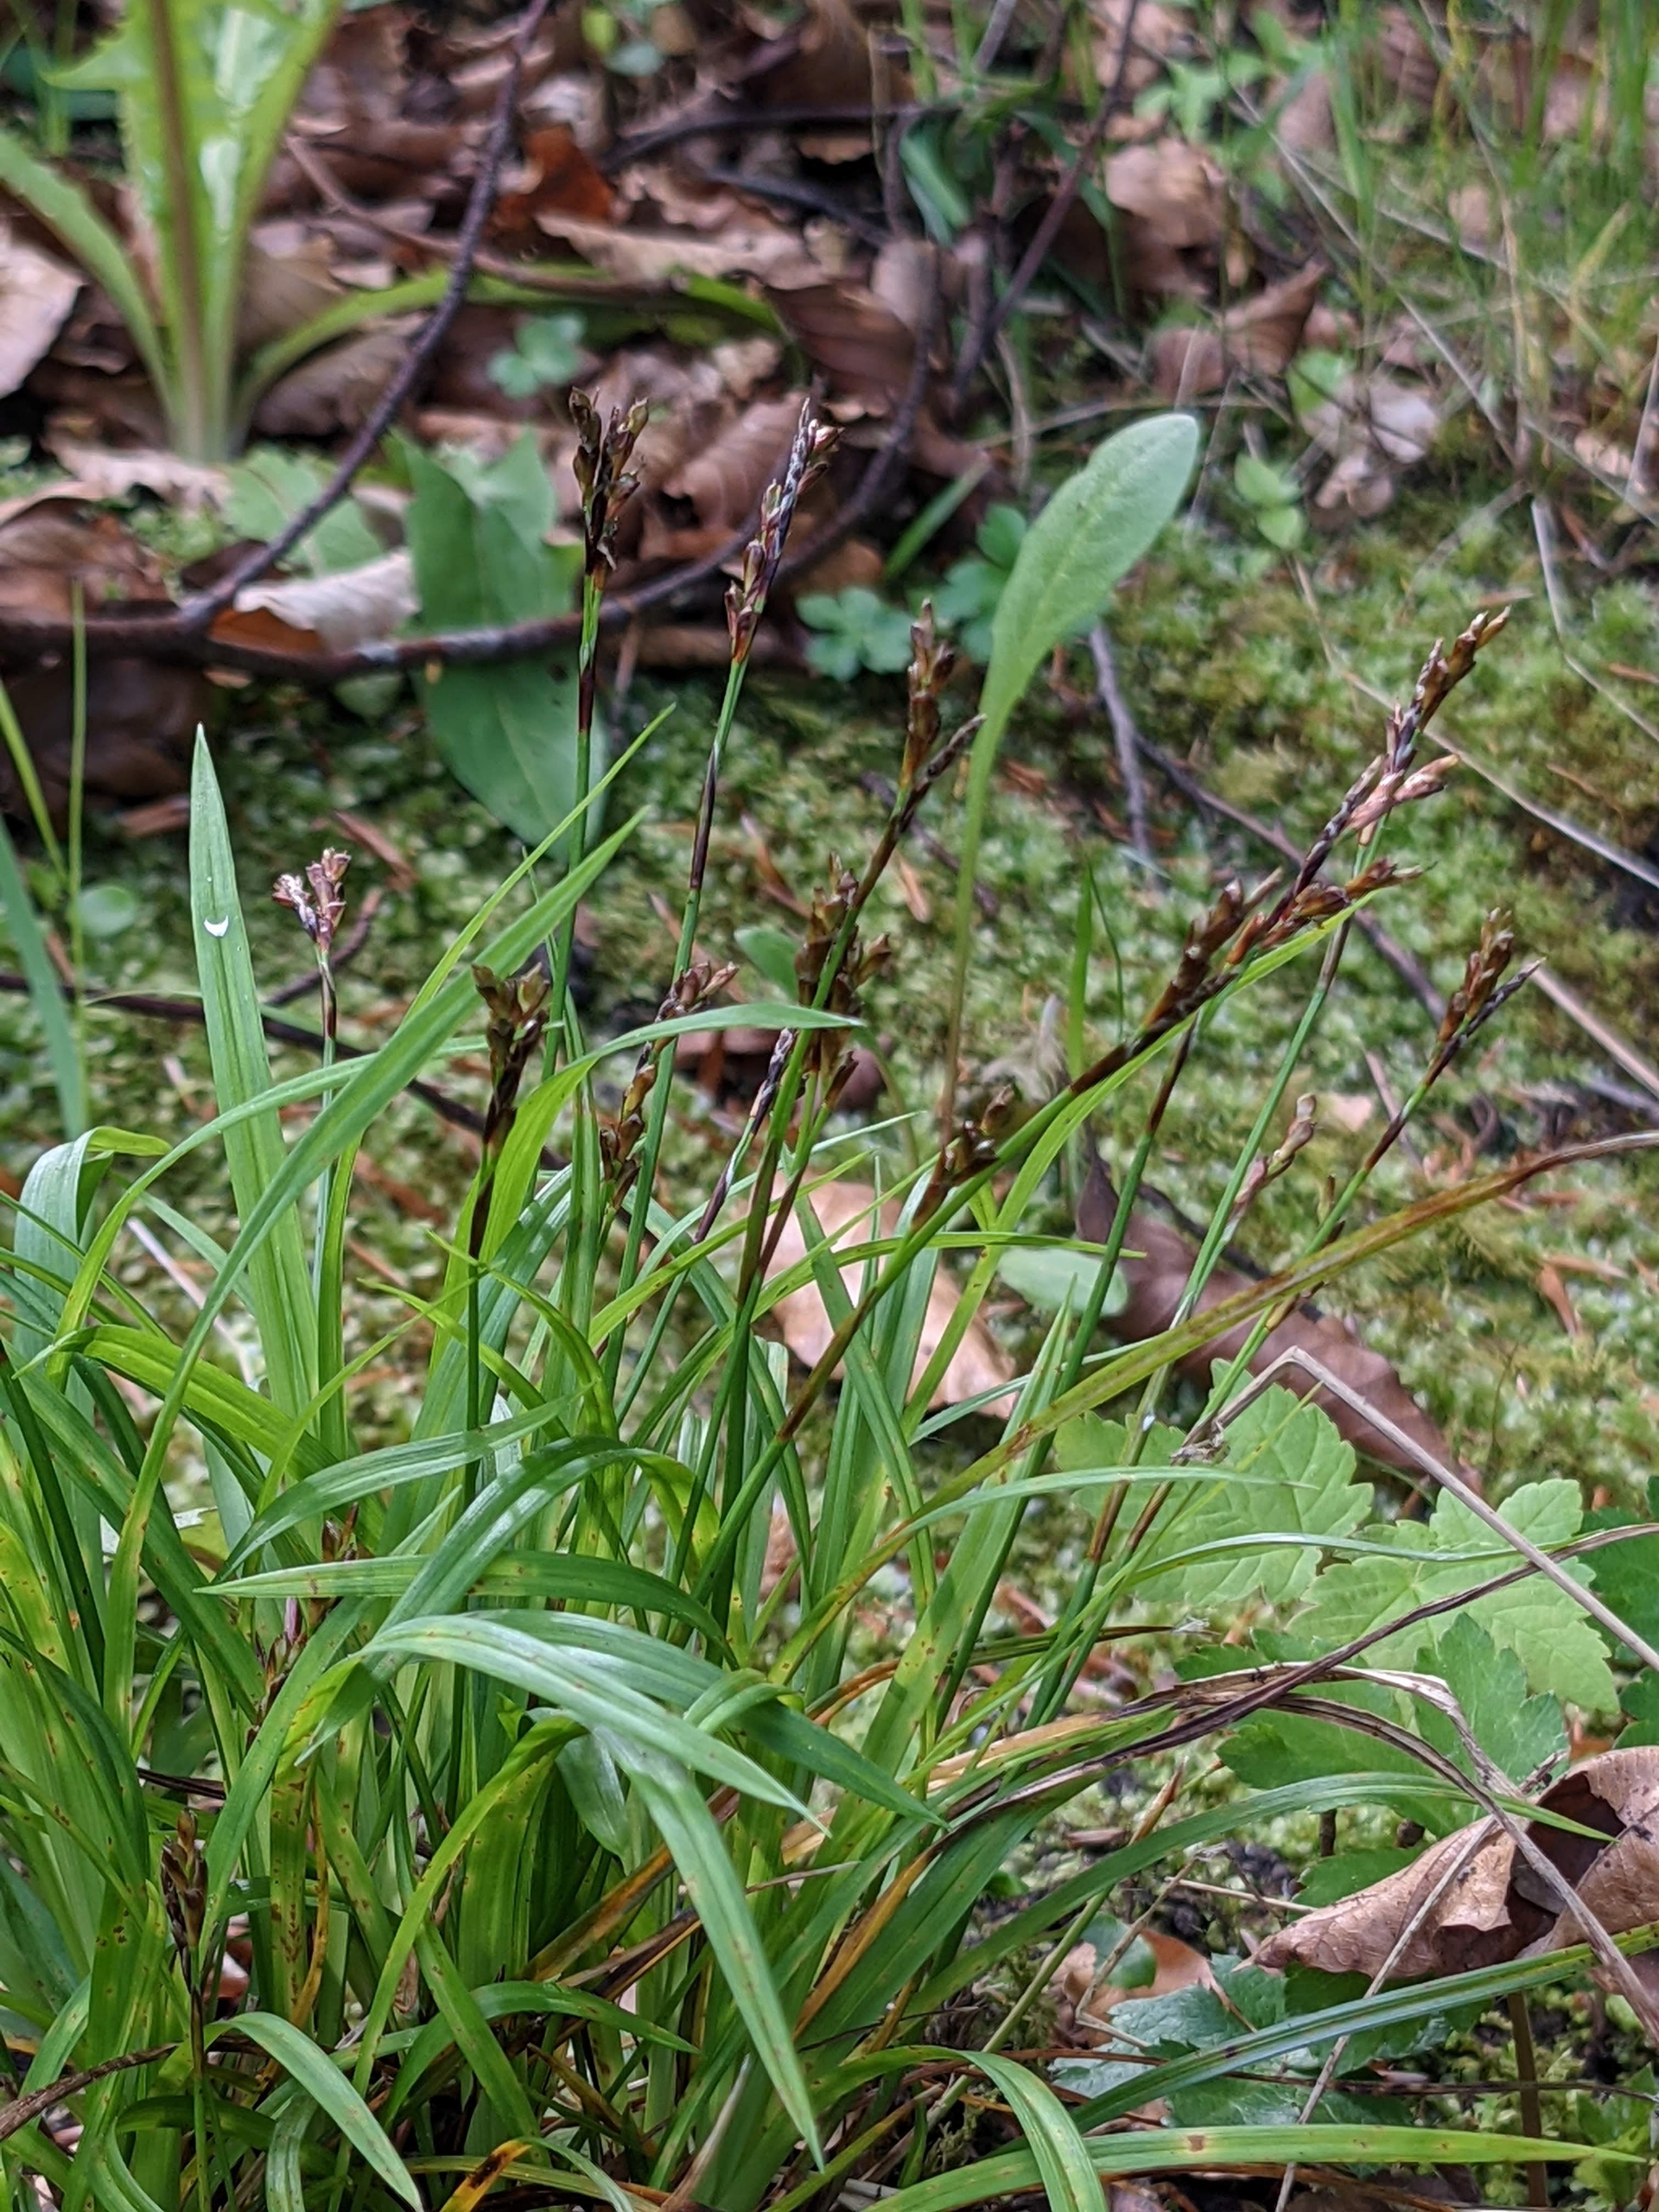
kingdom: Plantae
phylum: Tracheophyta
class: Liliopsida
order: Poales
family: Cyperaceae
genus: Carex
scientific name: Carex digitata
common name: Finger-star
